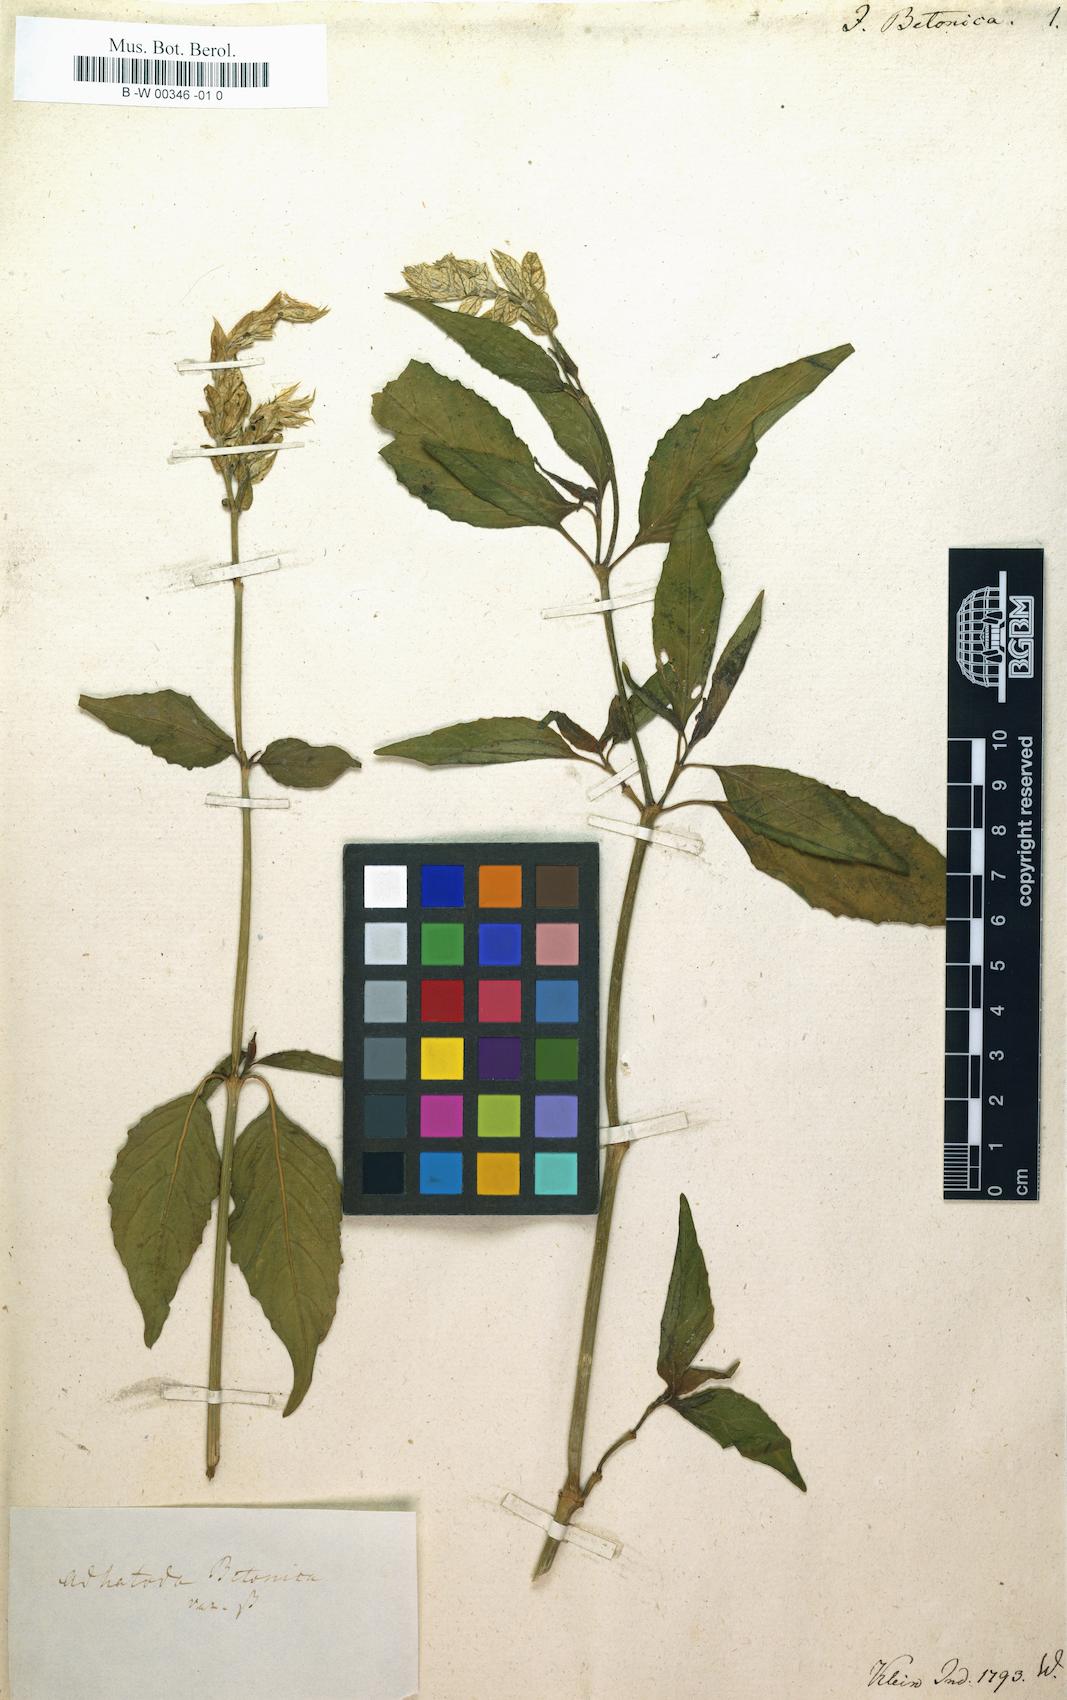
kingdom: Plantae
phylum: Tracheophyta
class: Magnoliopsida
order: Lamiales
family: Acanthaceae
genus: Justicia
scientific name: Justicia betonica
